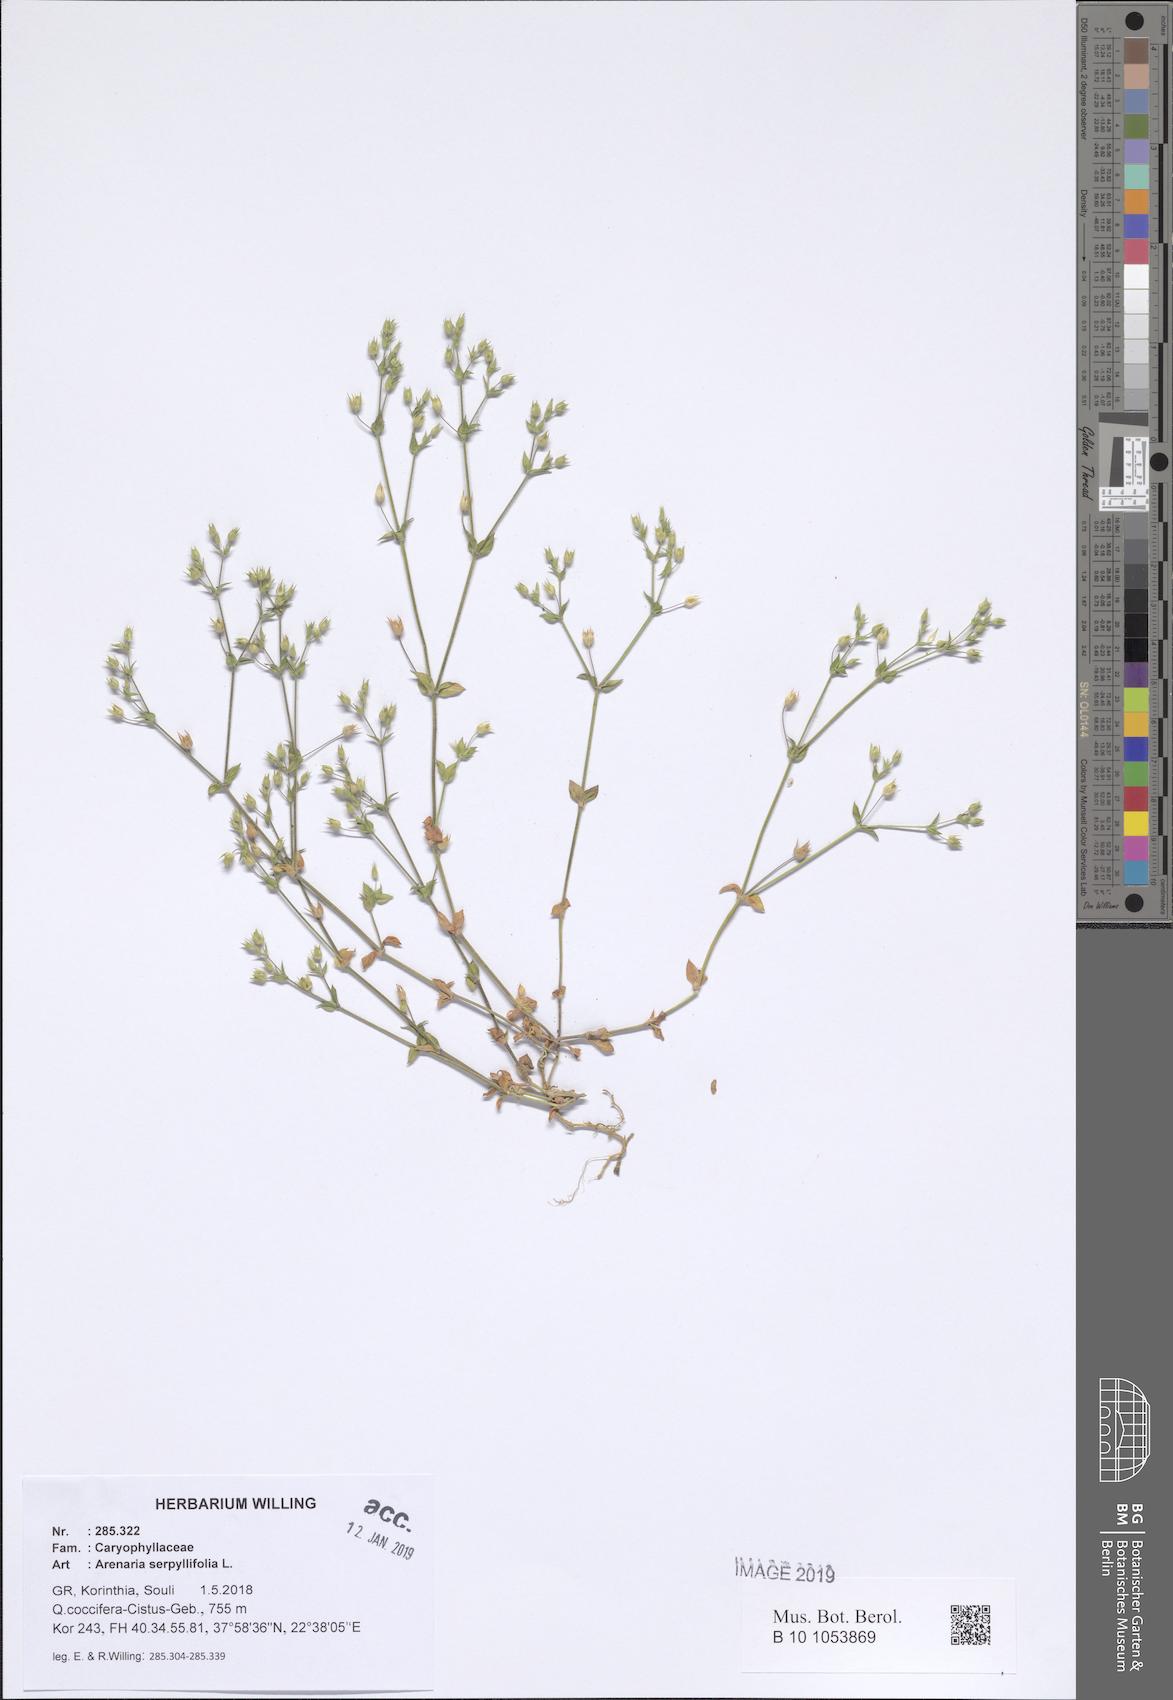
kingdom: Plantae
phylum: Tracheophyta
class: Magnoliopsida
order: Caryophyllales
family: Caryophyllaceae
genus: Arenaria
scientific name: Arenaria serpyllifolia
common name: Thyme-leaved sandwort
